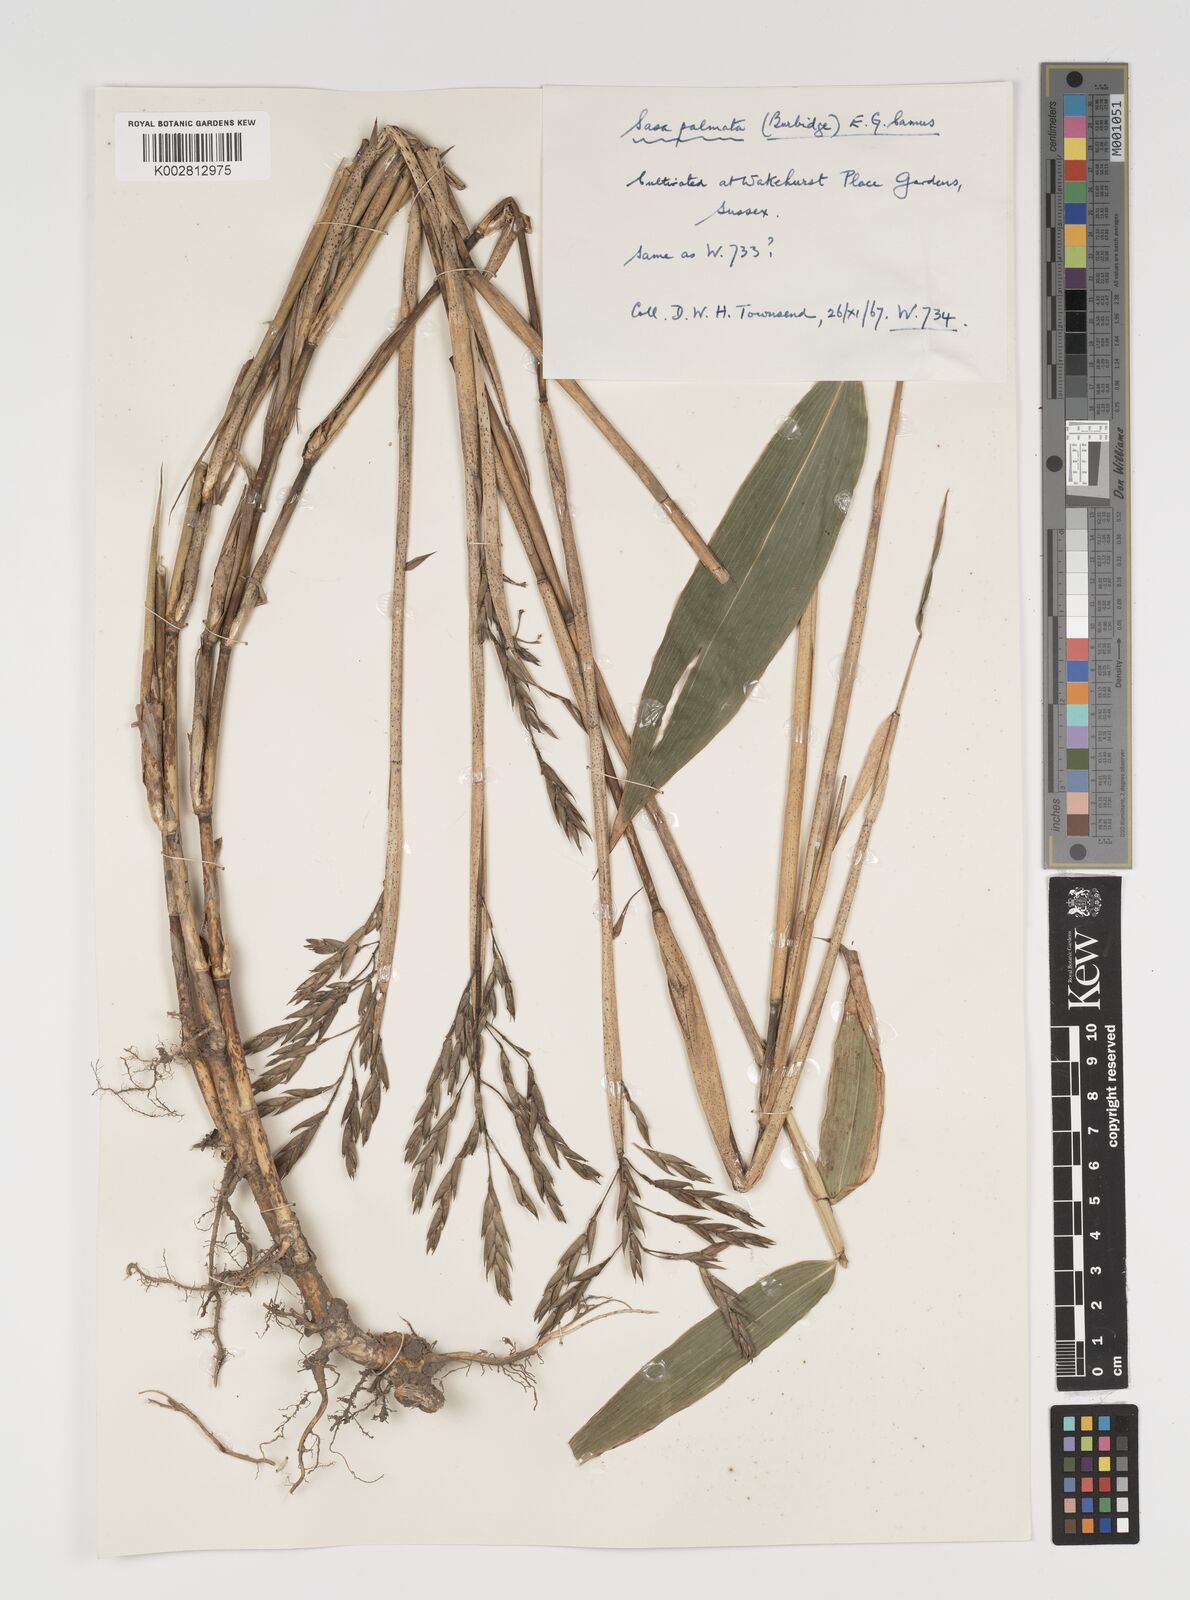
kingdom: Plantae
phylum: Tracheophyta
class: Liliopsida
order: Poales
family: Poaceae
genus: Sasa
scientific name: Sasa palmata
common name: Broad-leaved bamboo
